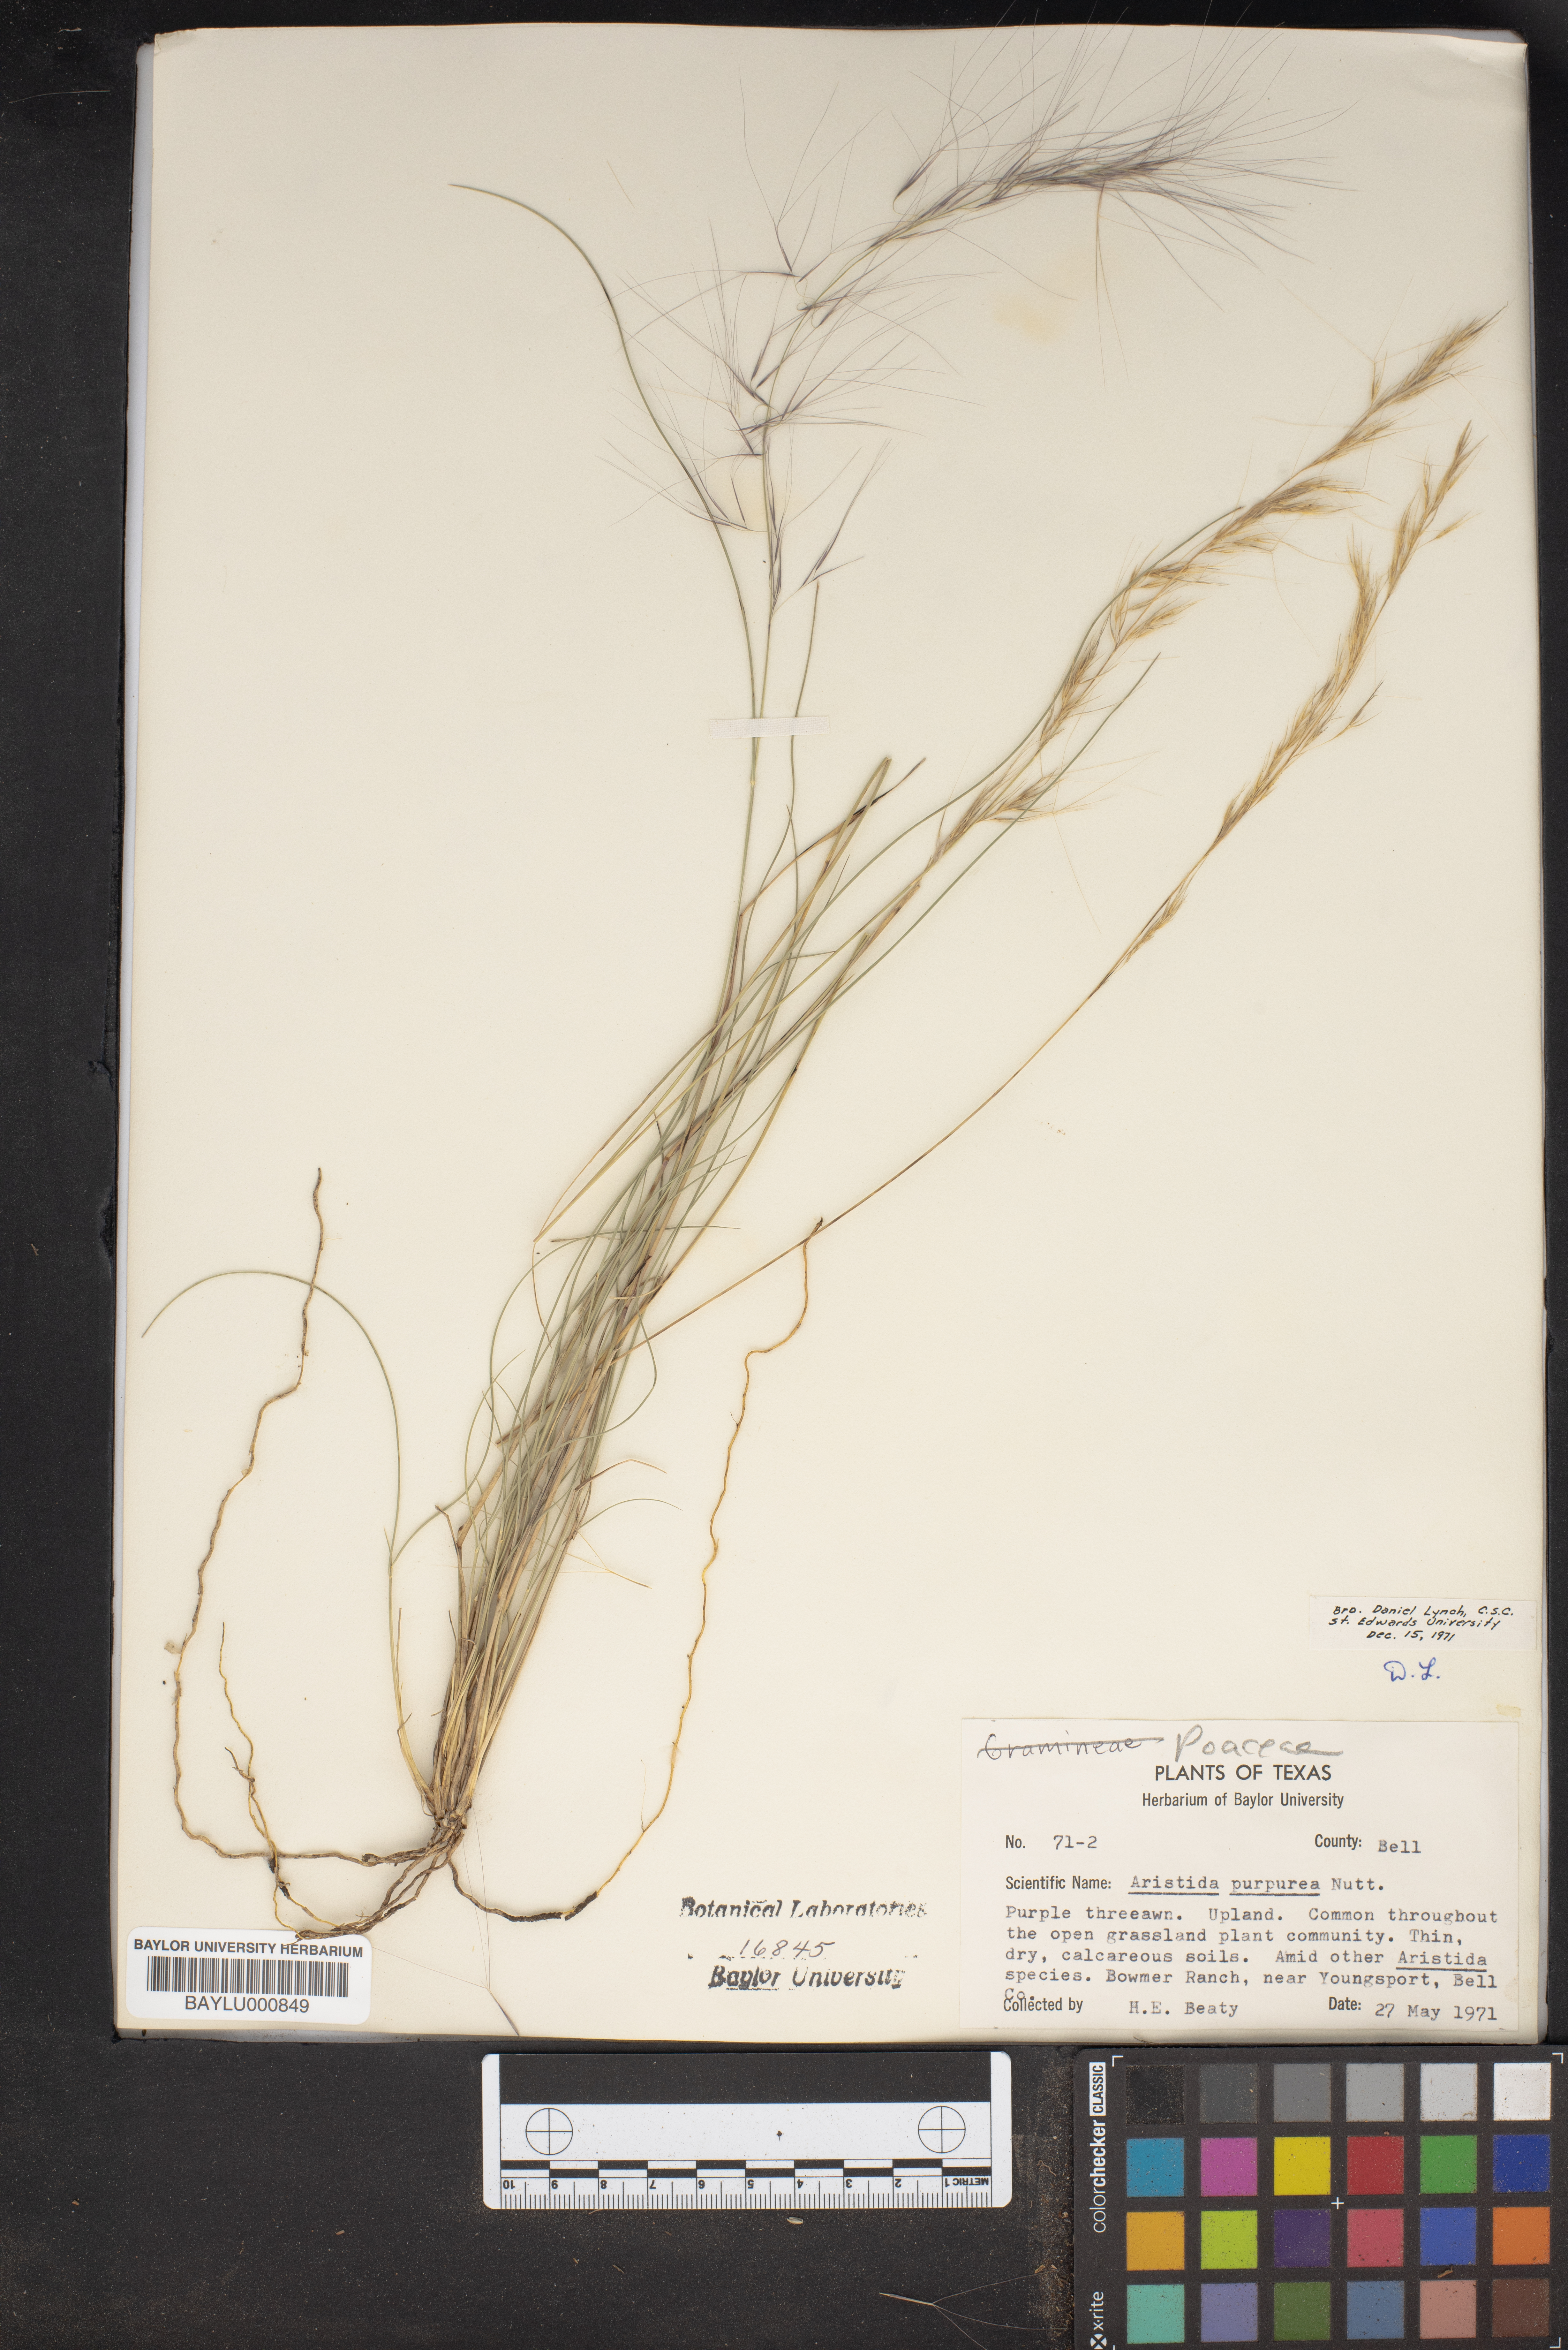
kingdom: Plantae
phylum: Tracheophyta
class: Liliopsida
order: Poales
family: Poaceae
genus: Aristida
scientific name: Aristida purpurea
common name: Purple threeawn
